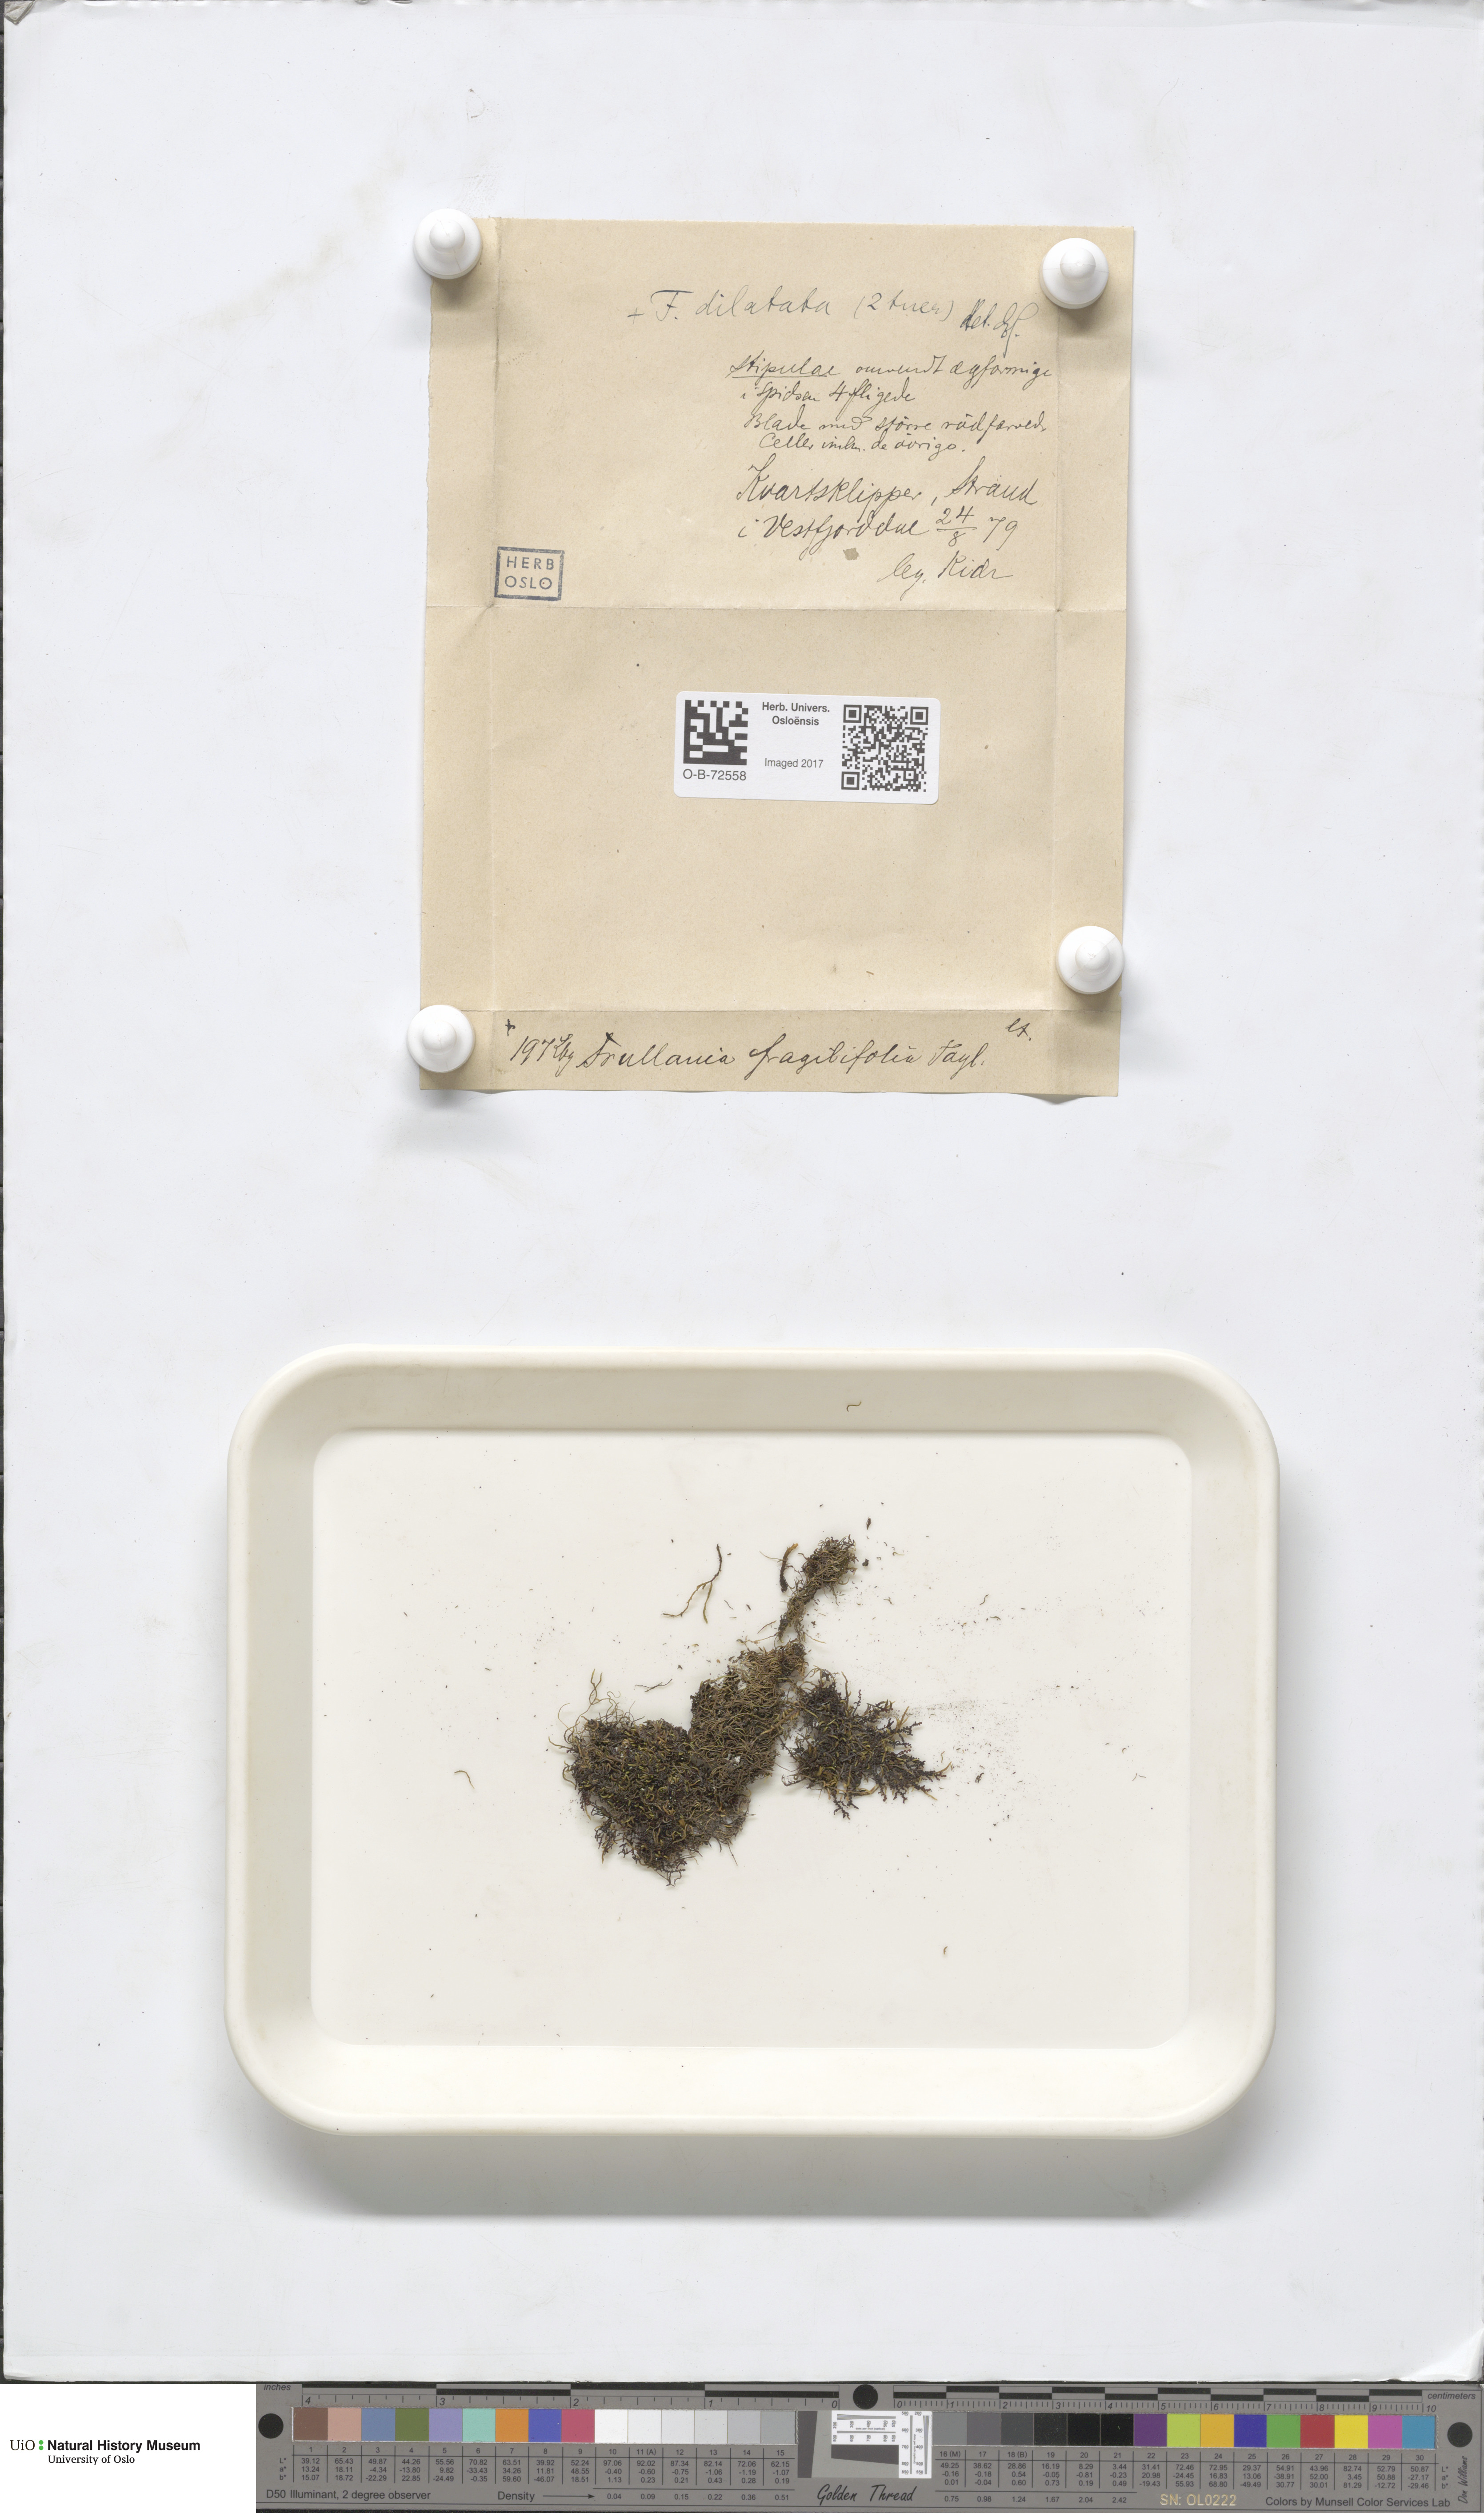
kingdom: Plantae
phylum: Marchantiophyta
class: Jungermanniopsida
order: Porellales
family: Frullaniaceae
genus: Frullania
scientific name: Frullania dilatata
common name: Dilated scalewort
